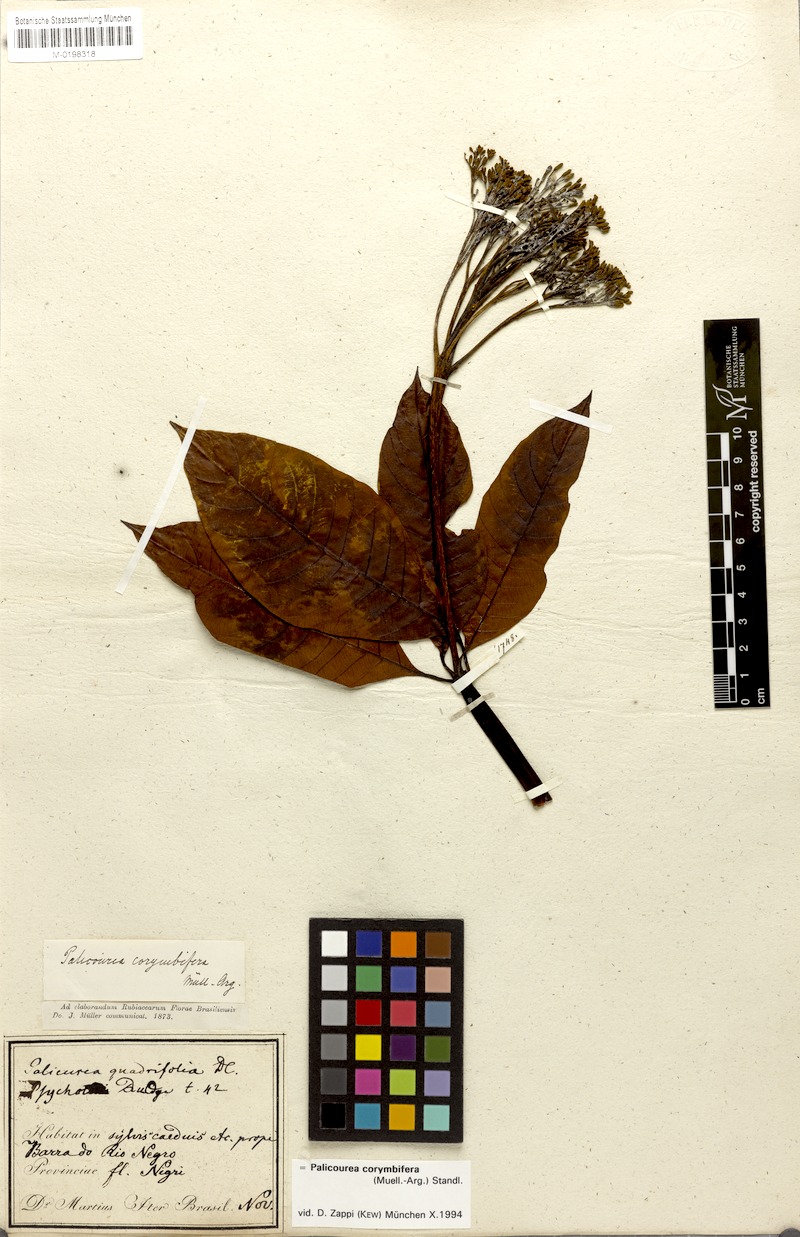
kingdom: Plantae
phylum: Tracheophyta
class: Magnoliopsida
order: Gentianales
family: Rubiaceae
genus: Palicourea
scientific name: Palicourea corymbifera
